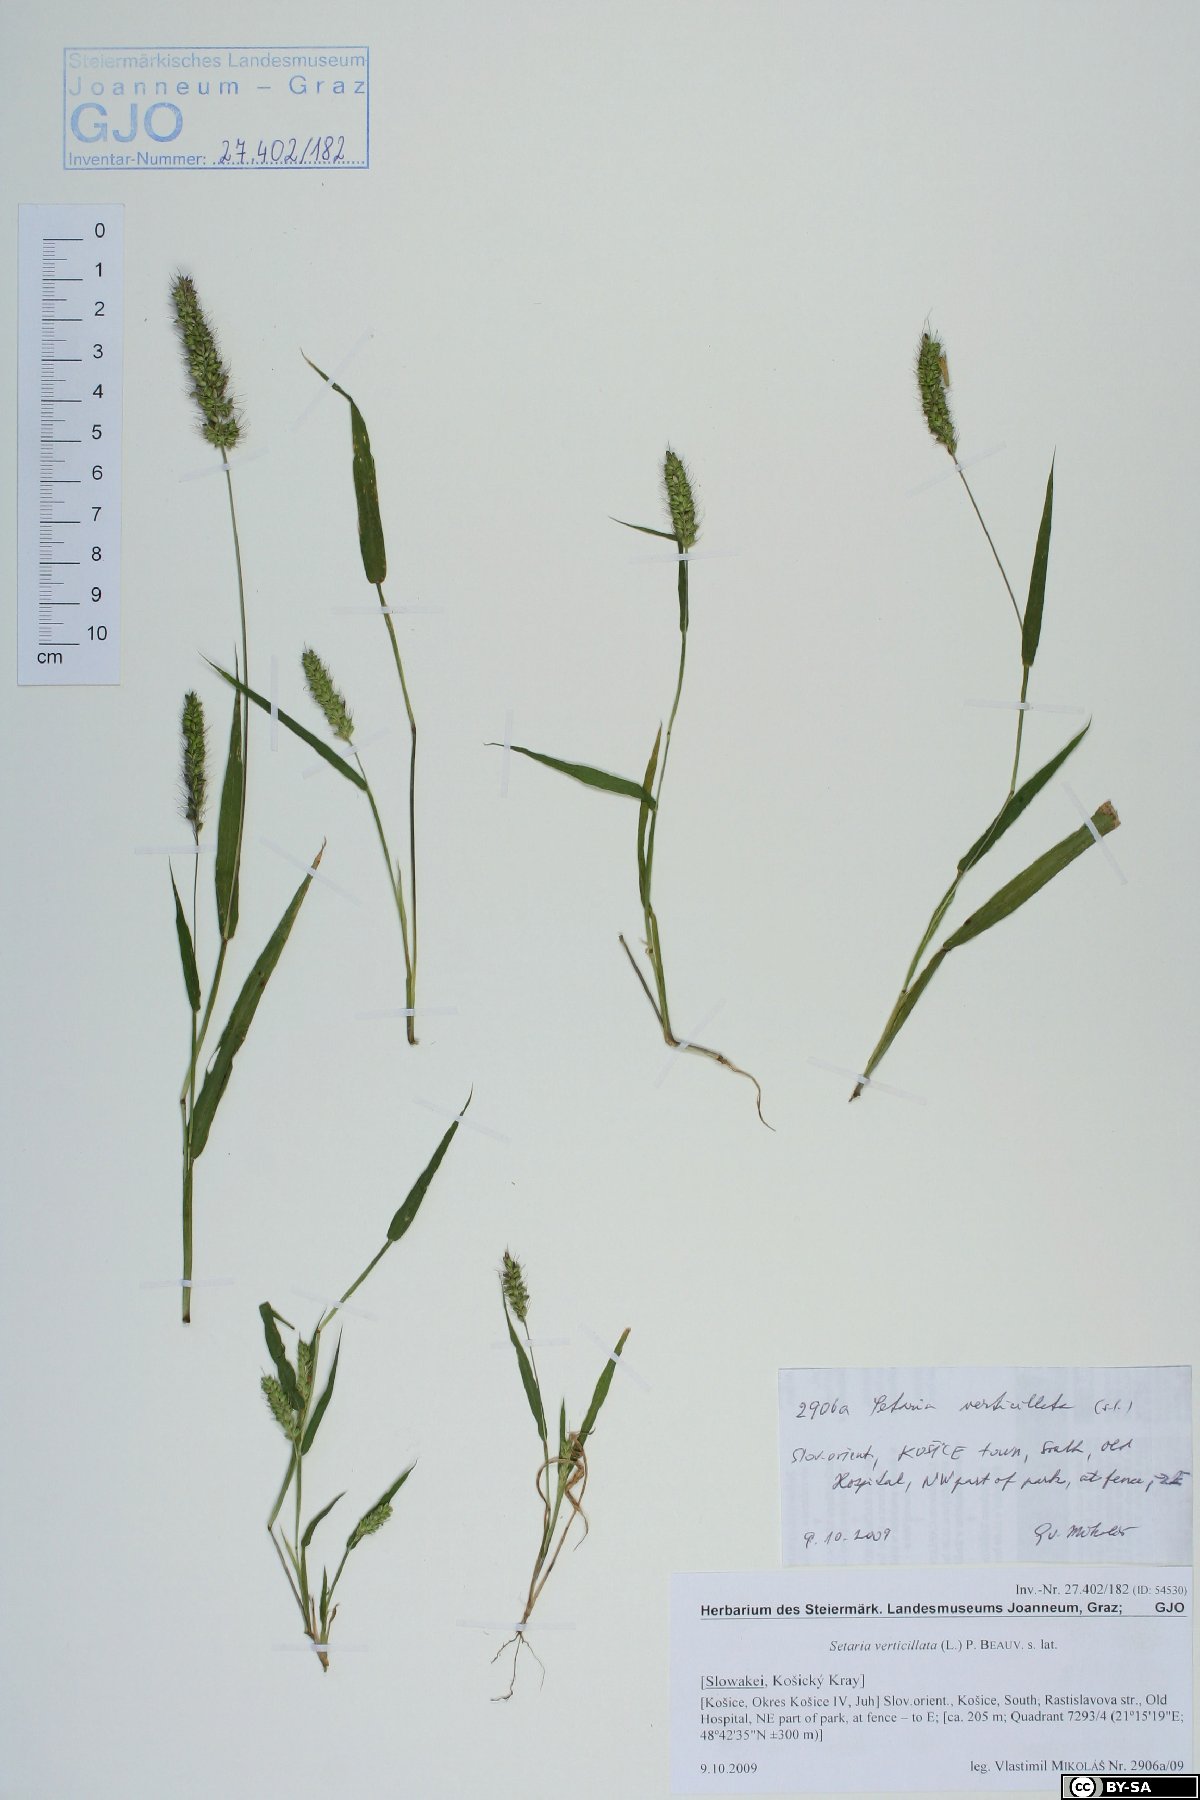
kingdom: Plantae
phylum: Tracheophyta
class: Liliopsida
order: Poales
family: Poaceae
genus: Setaria
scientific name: Setaria verticillata
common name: Hooked bristlegrass
